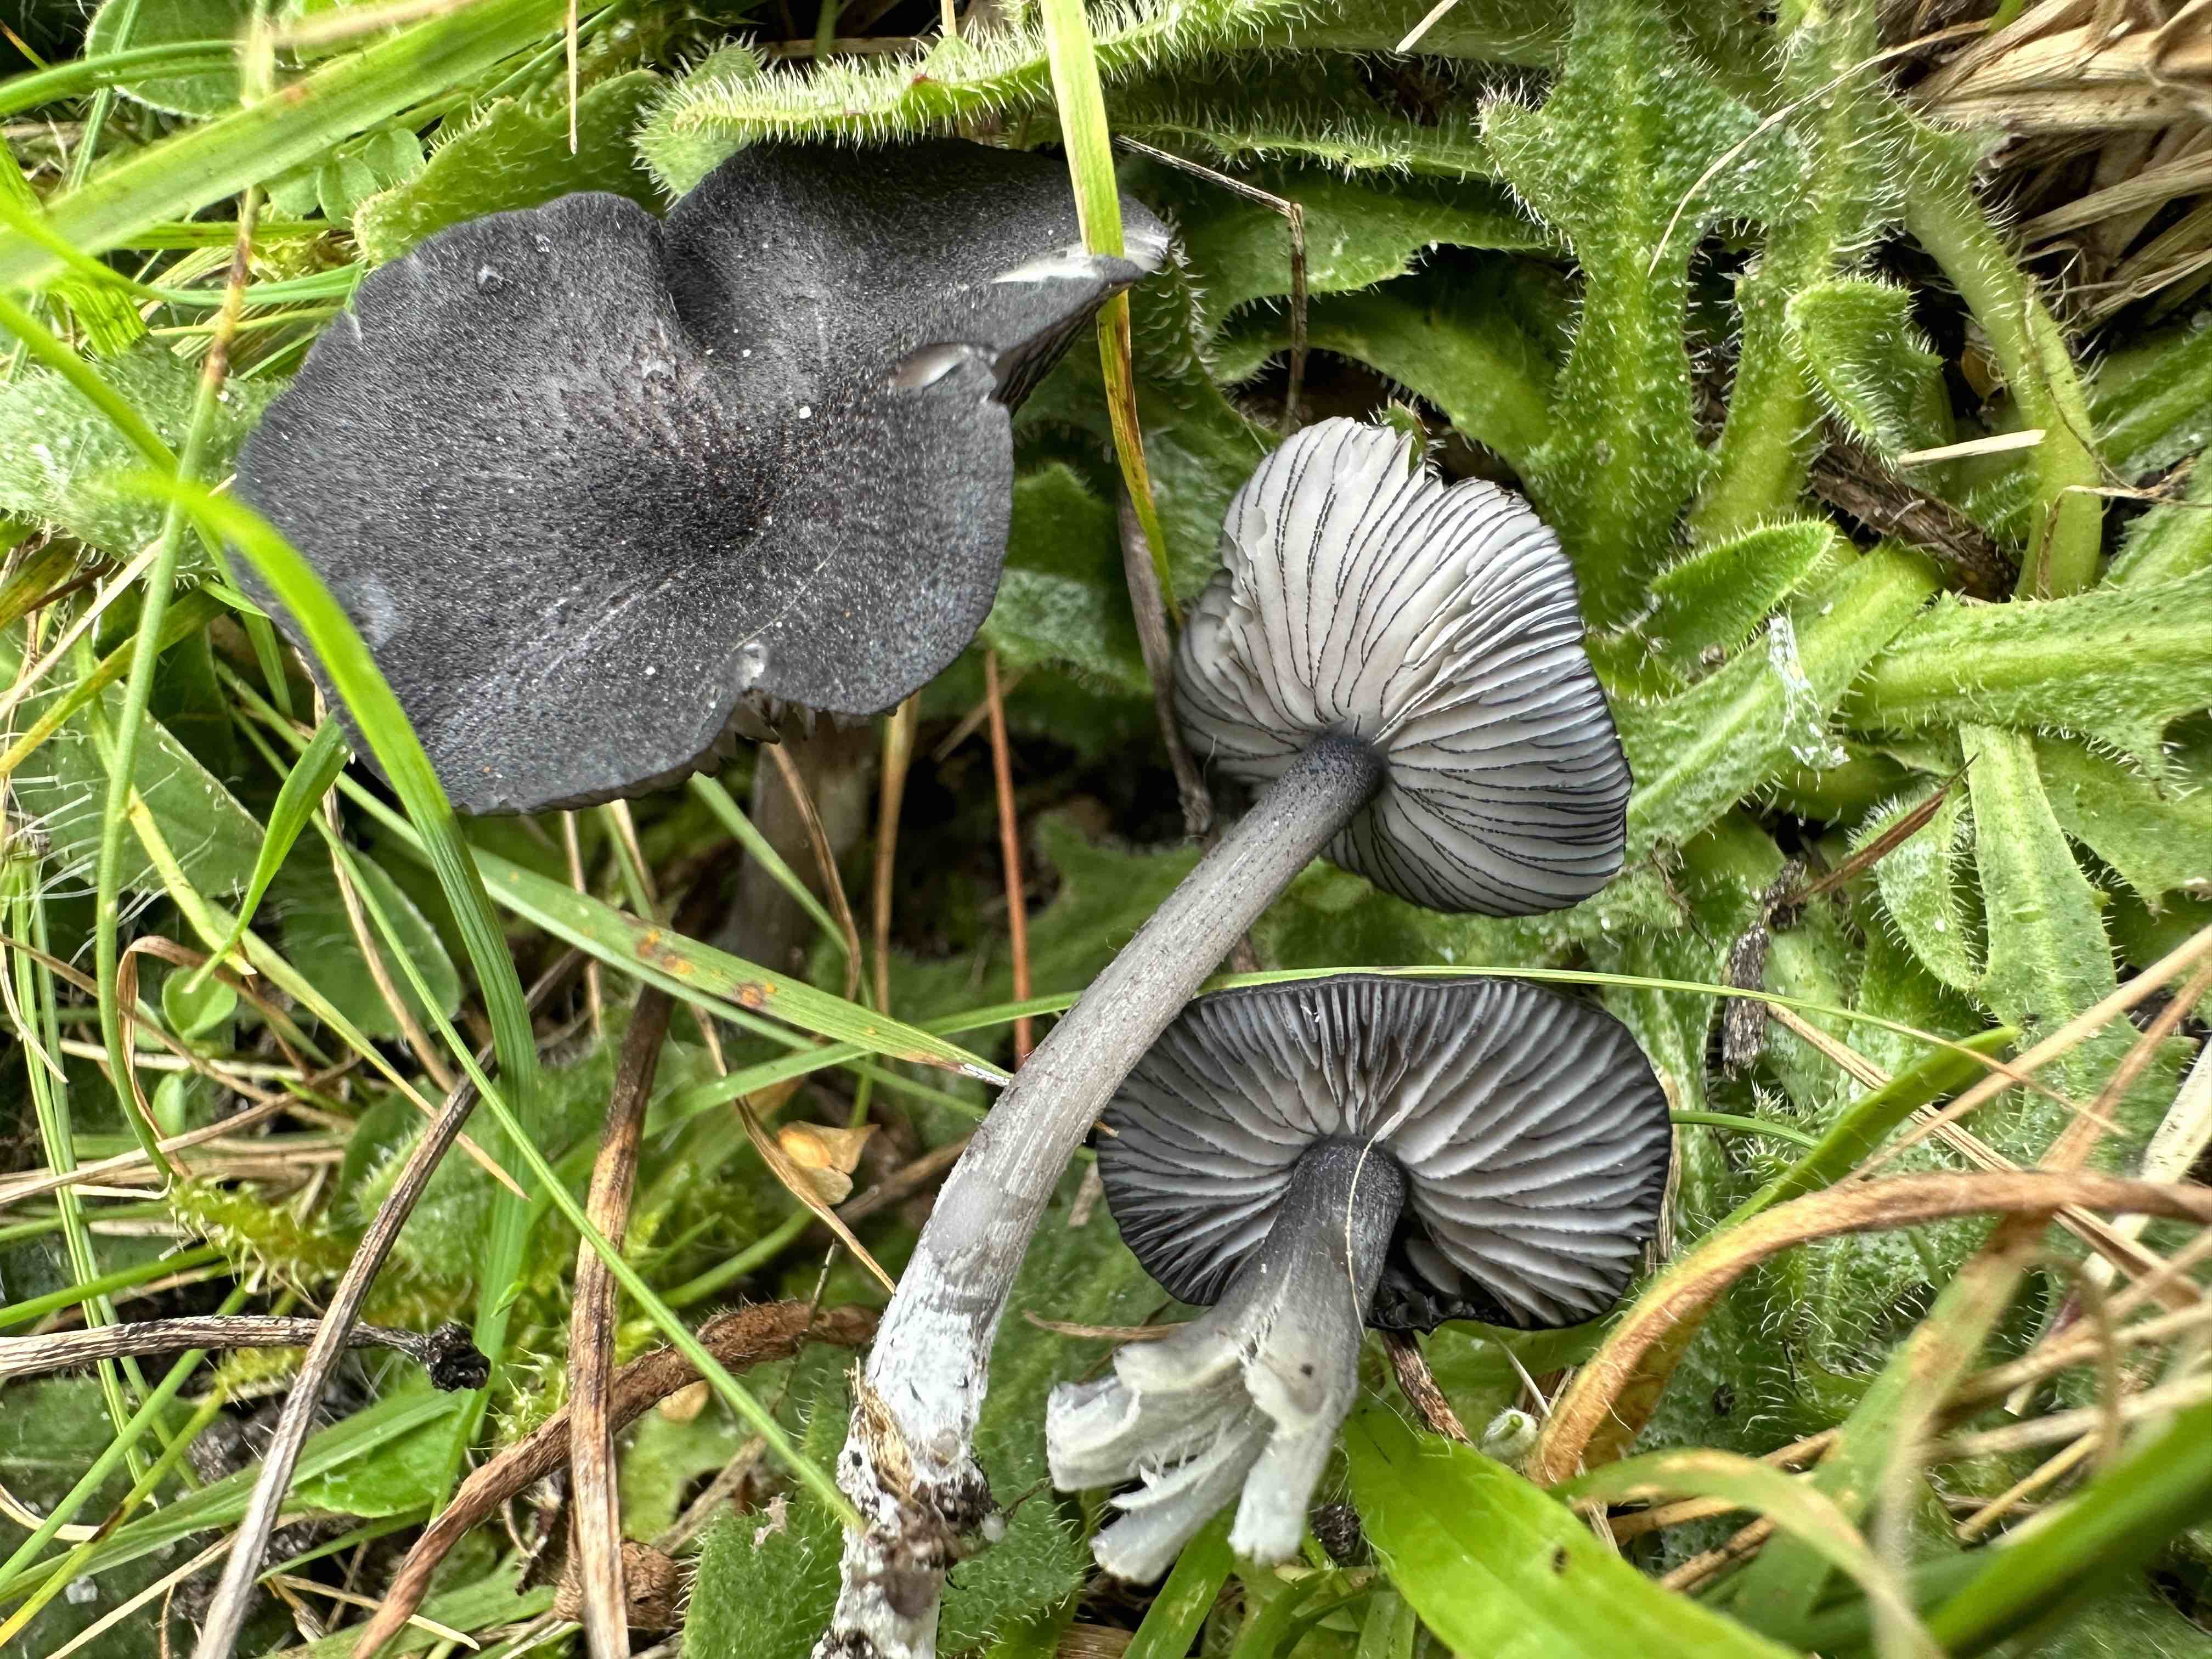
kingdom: Fungi
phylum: Basidiomycota
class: Agaricomycetes
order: Agaricales
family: Entolomataceae
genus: Entoloma
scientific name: Entoloma
